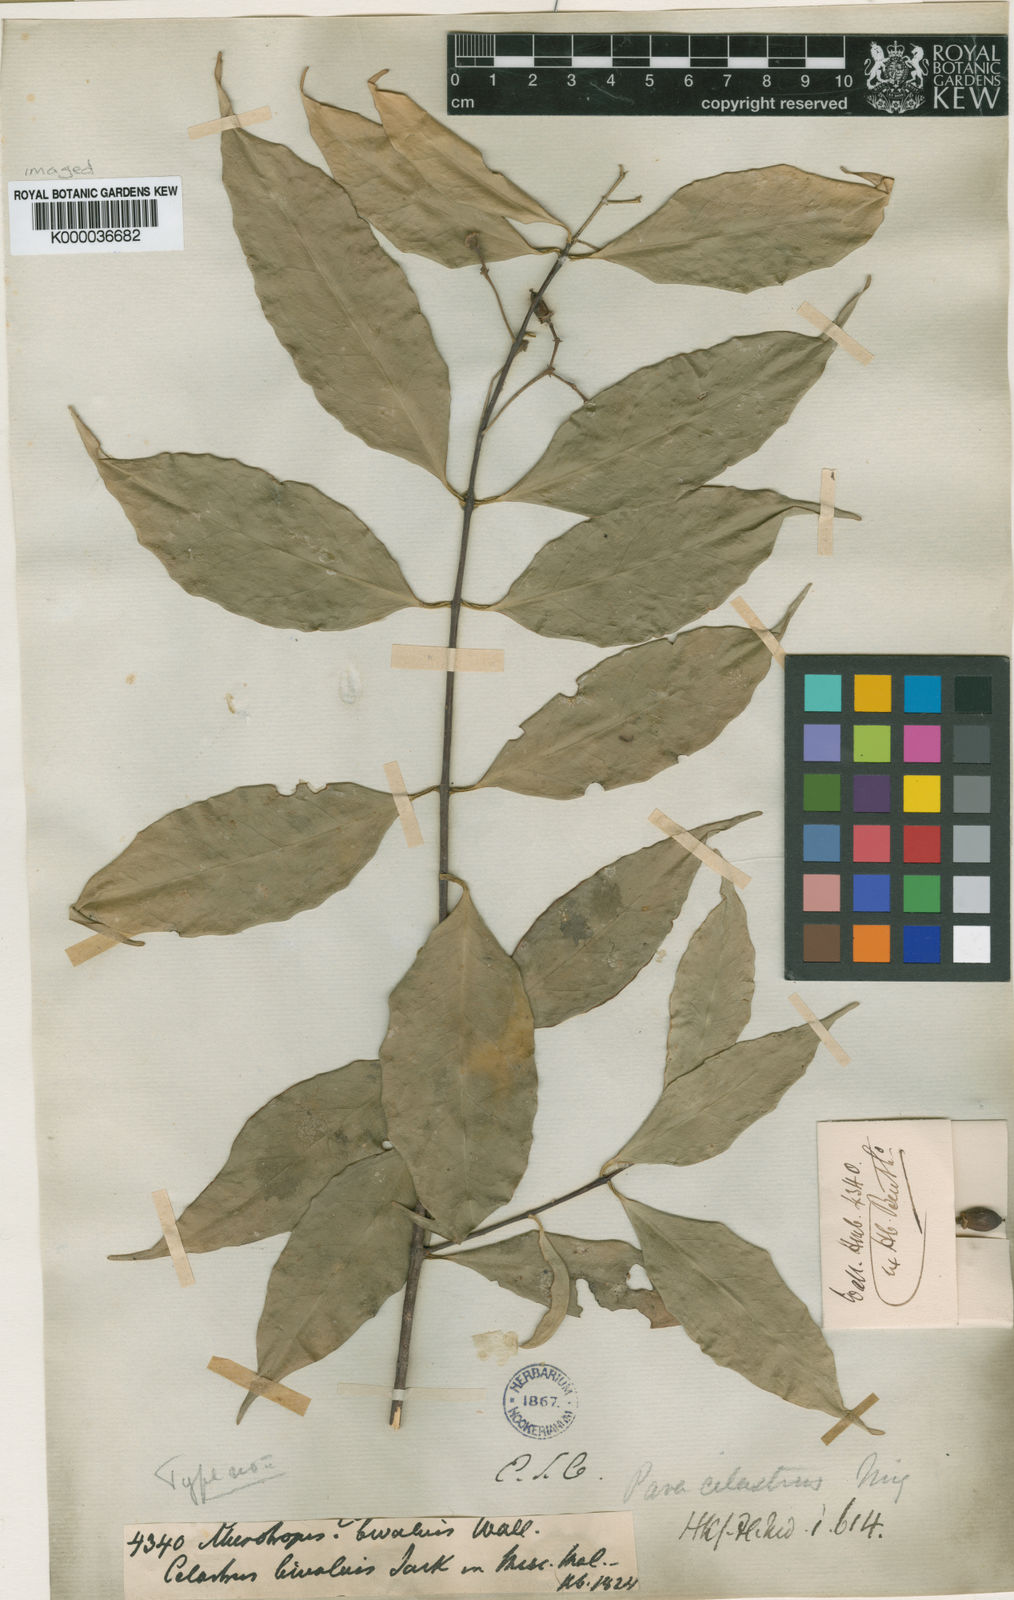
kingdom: Plantae
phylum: Tracheophyta
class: Magnoliopsida
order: Celastrales
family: Celastraceae
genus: Microtropis
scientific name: Microtropis bivalvis
